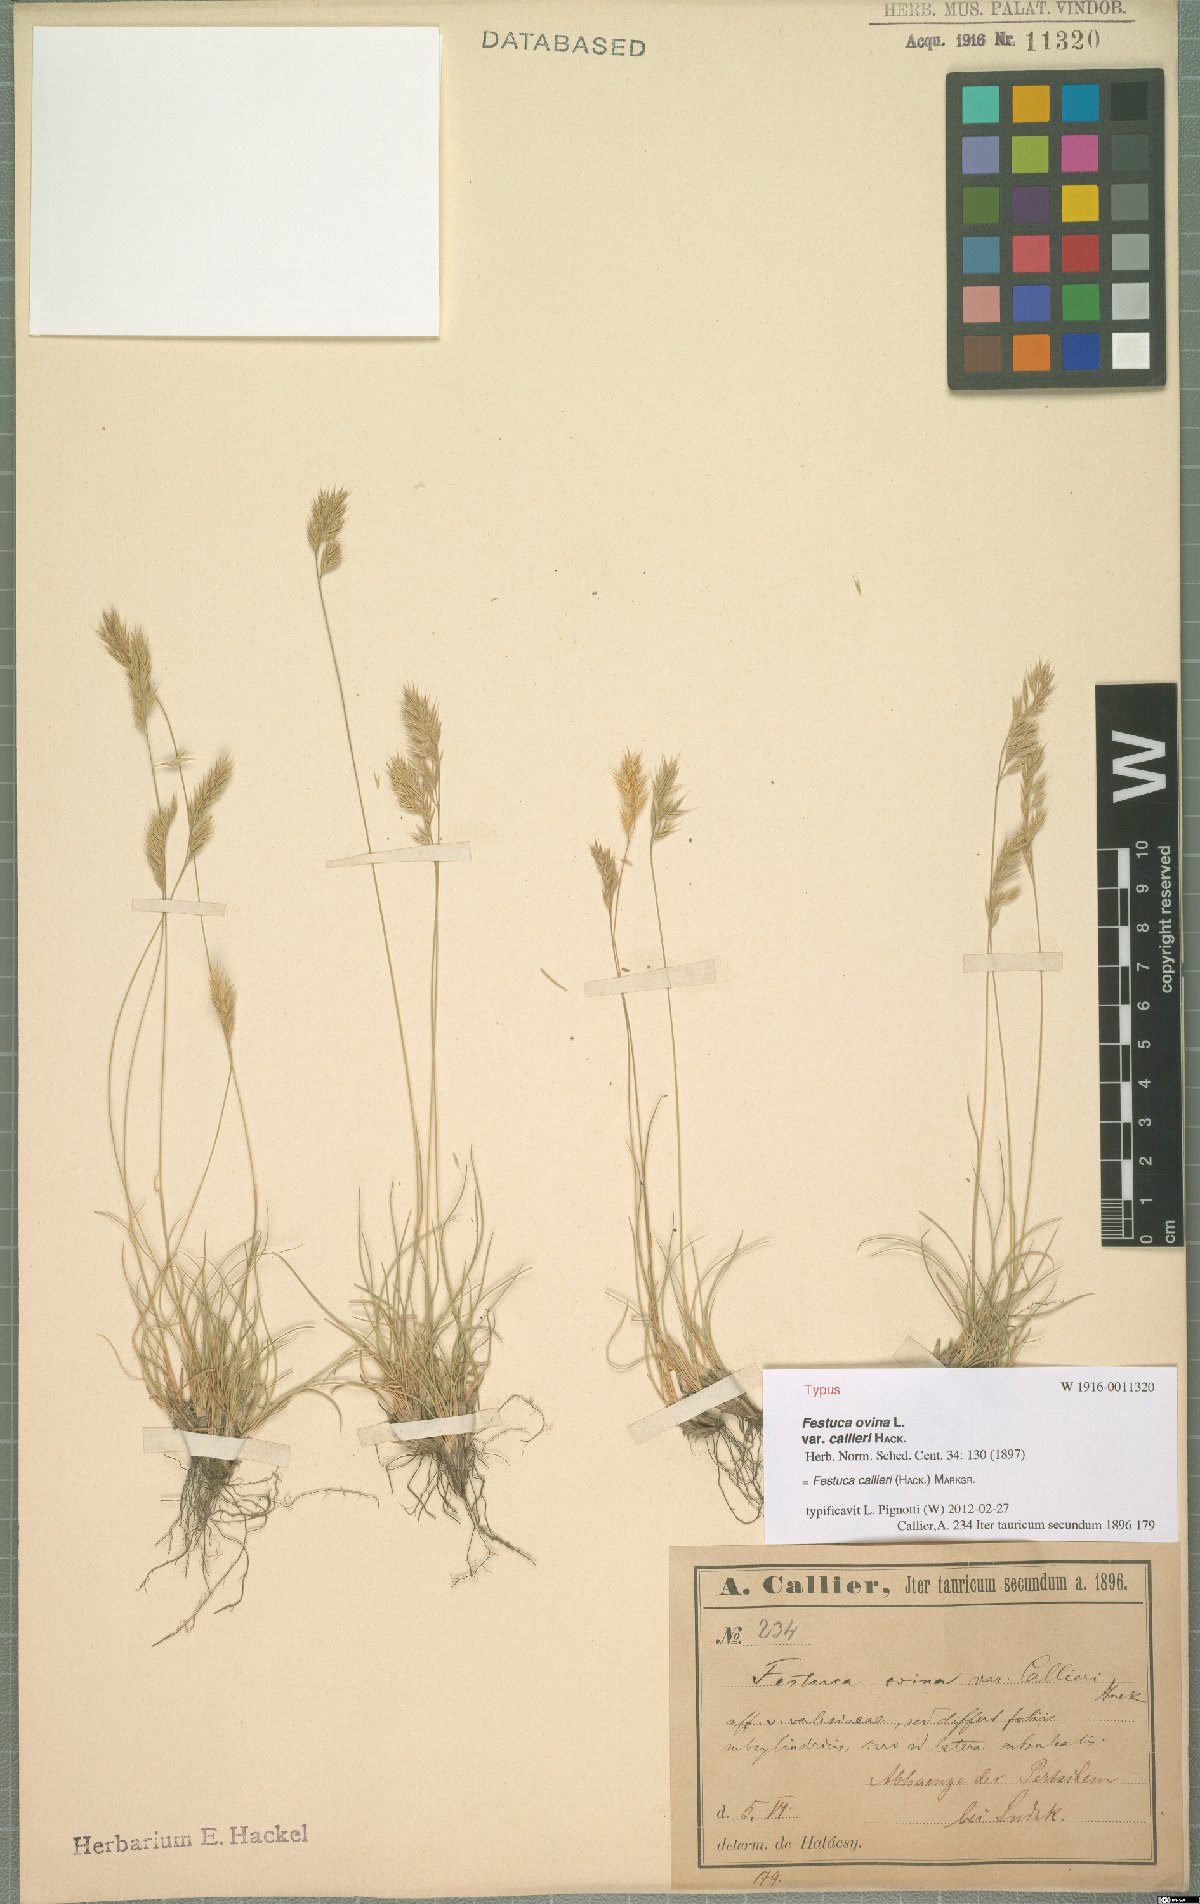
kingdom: Plantae
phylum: Tracheophyta
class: Liliopsida
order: Poales
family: Poaceae
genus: Festuca
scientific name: Festuca callieri
